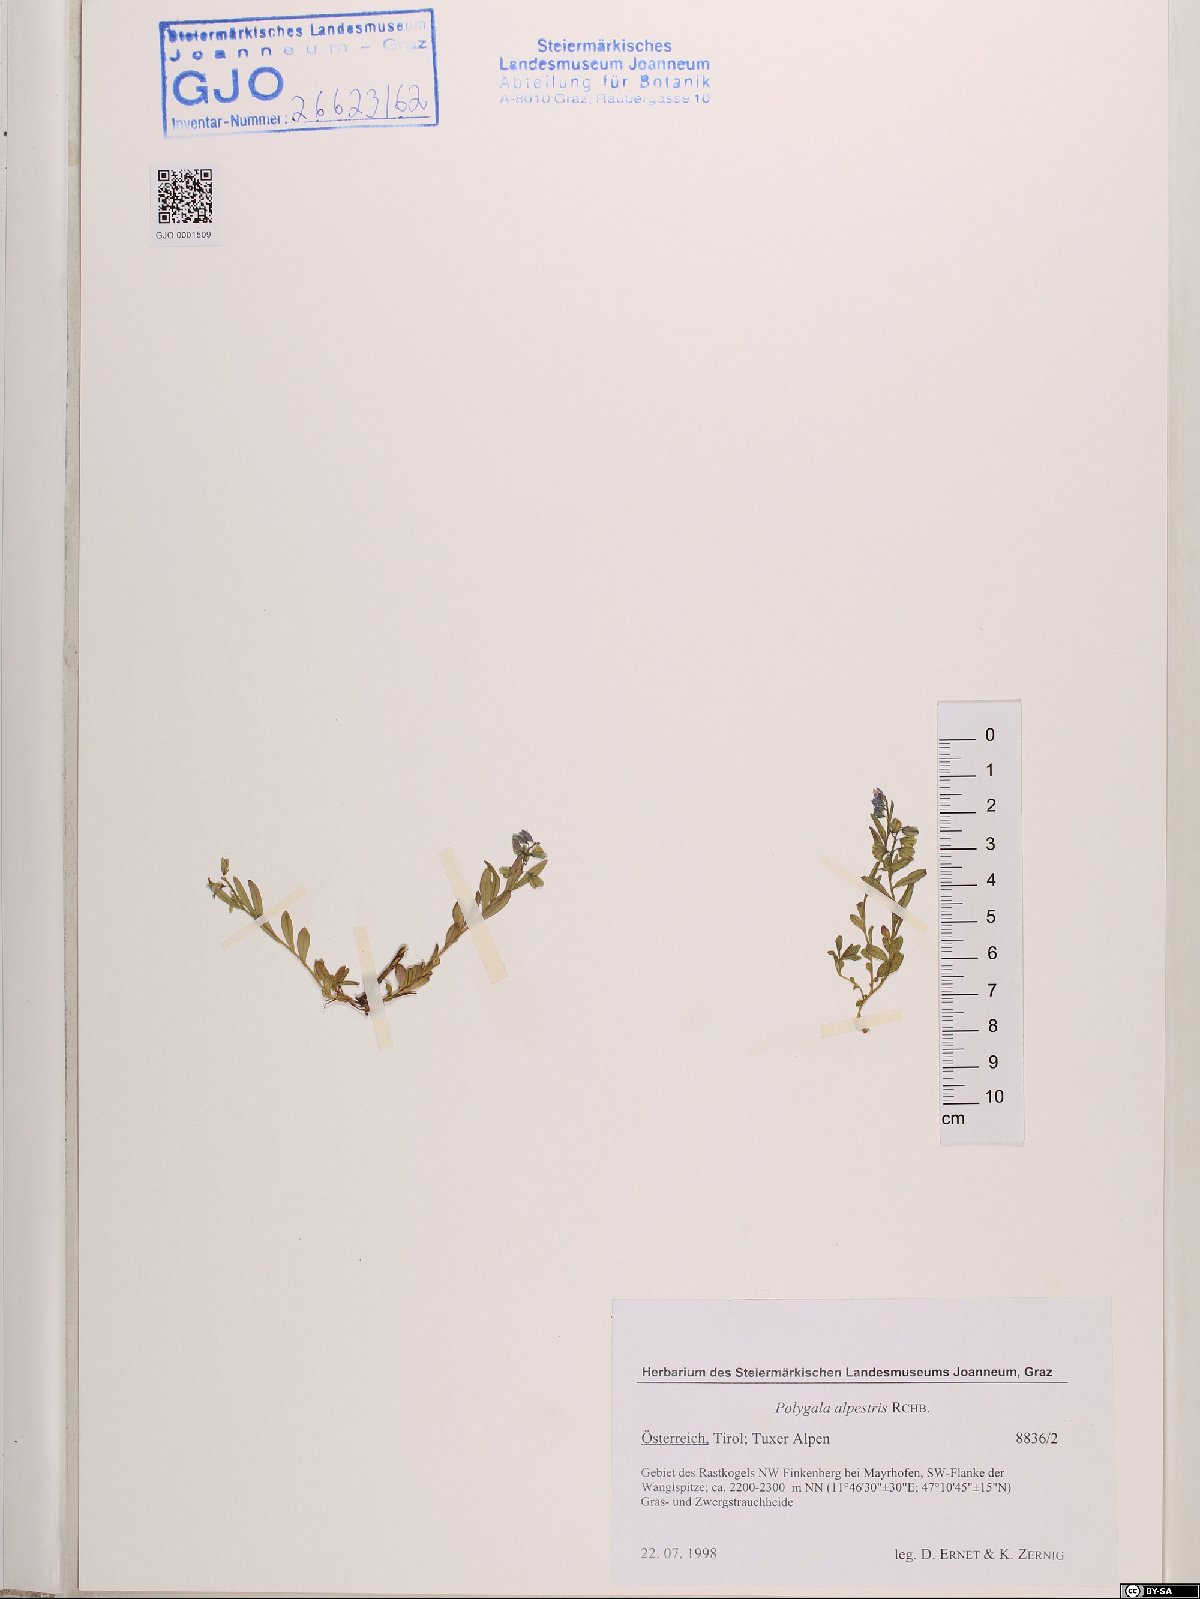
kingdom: Plantae
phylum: Tracheophyta
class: Magnoliopsida
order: Fabales
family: Polygalaceae
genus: Polygala
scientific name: Polygala alpestris
